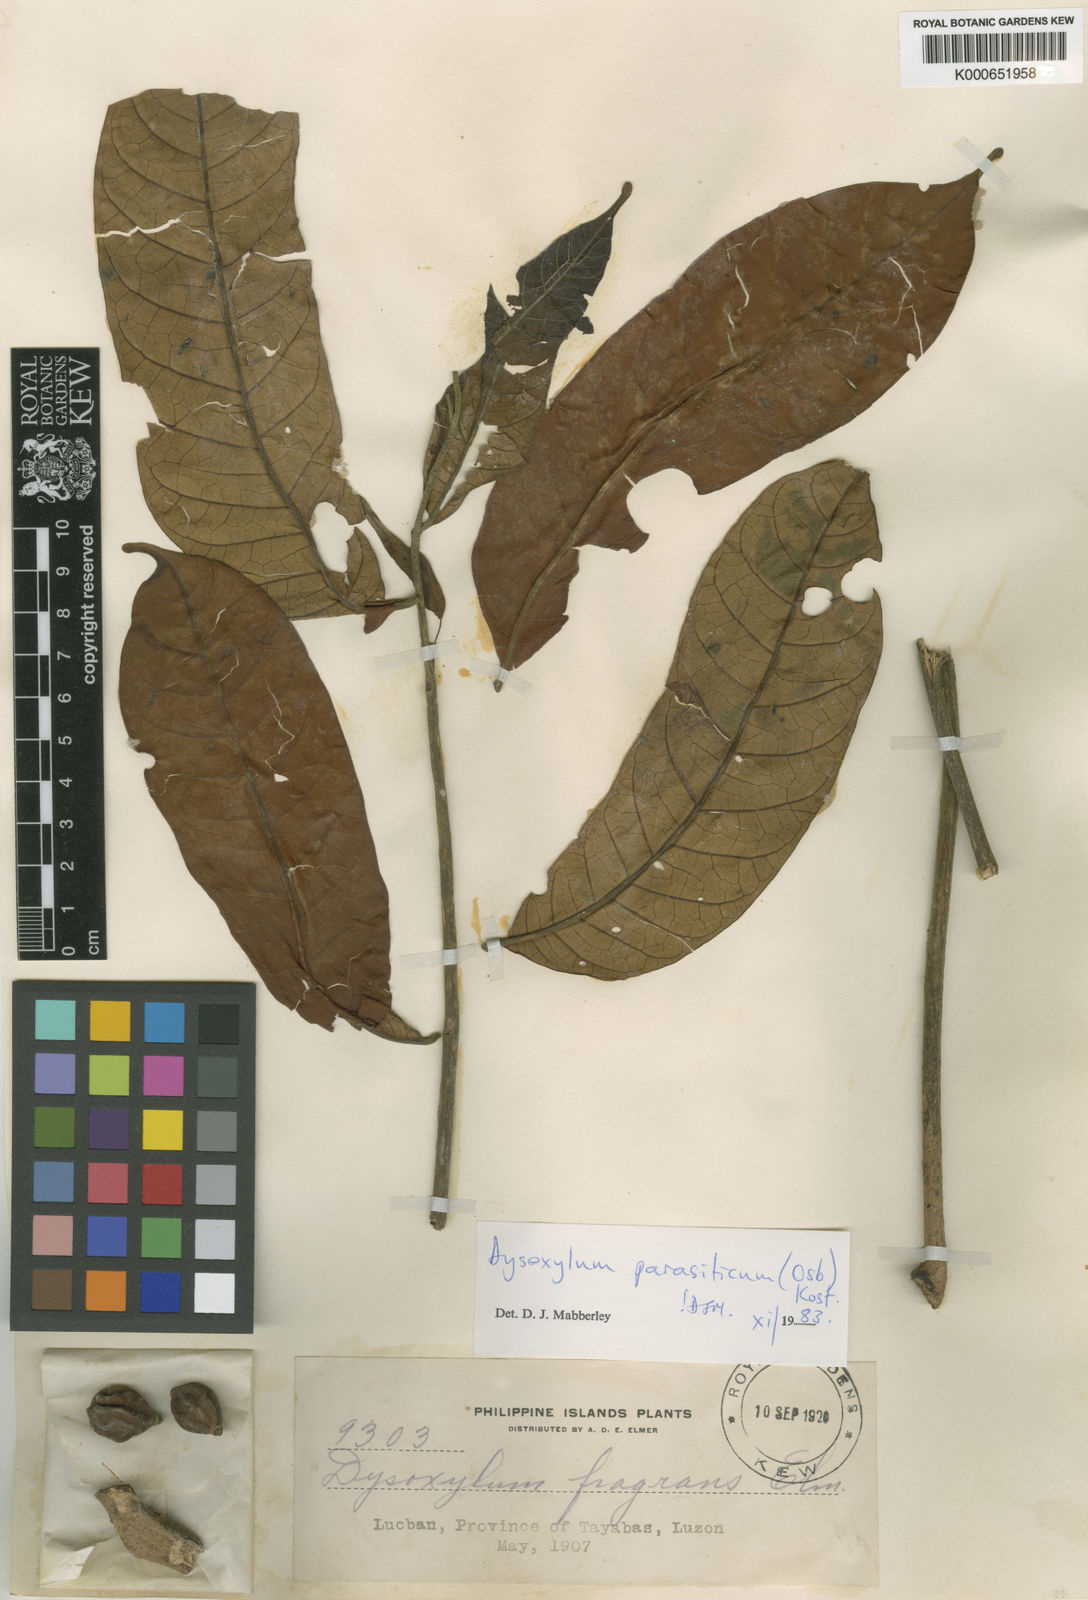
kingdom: Plantae
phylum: Tracheophyta
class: Magnoliopsida
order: Sapindales
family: Meliaceae
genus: Epicharis
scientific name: Epicharis parasitica
